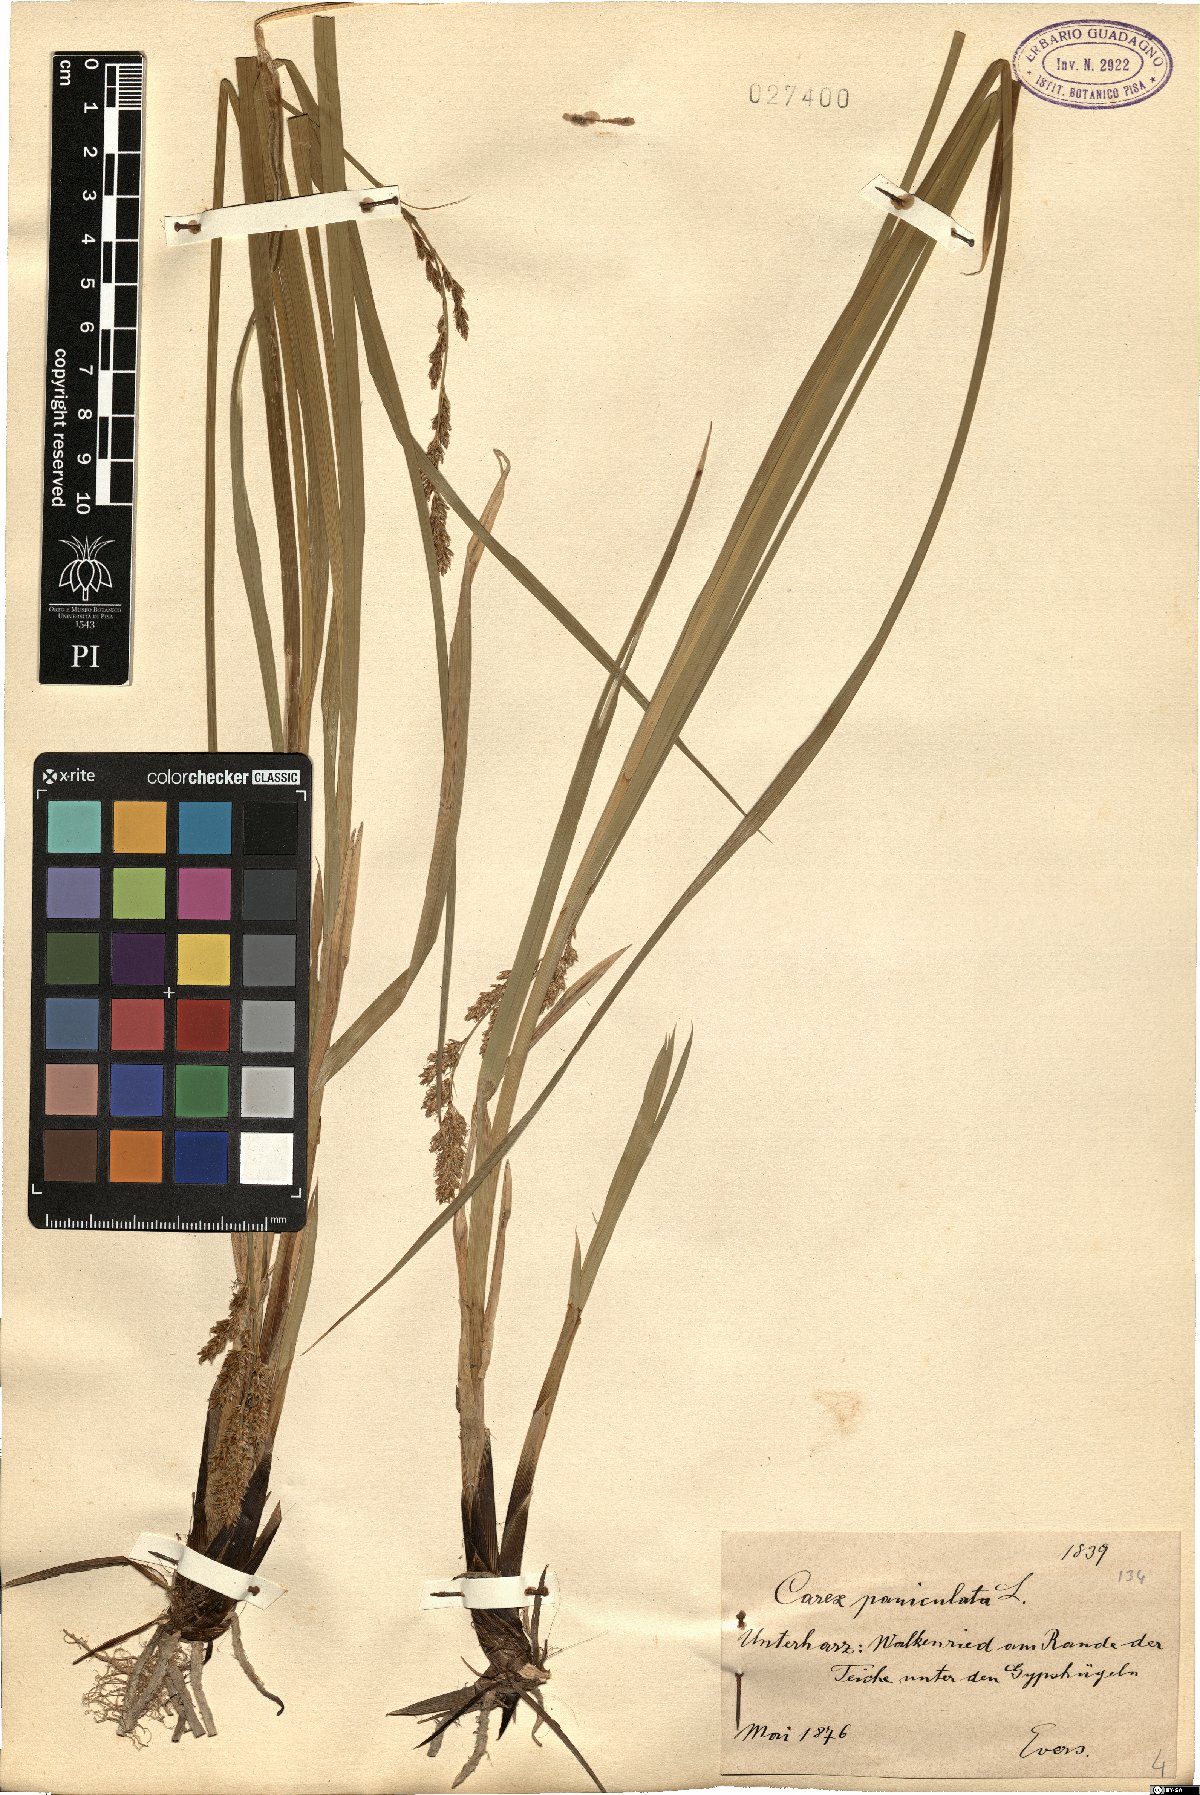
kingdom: Plantae
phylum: Tracheophyta
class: Liliopsida
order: Poales
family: Cyperaceae
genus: Carex
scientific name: Carex paniculata
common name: Greater tussock-sedge
